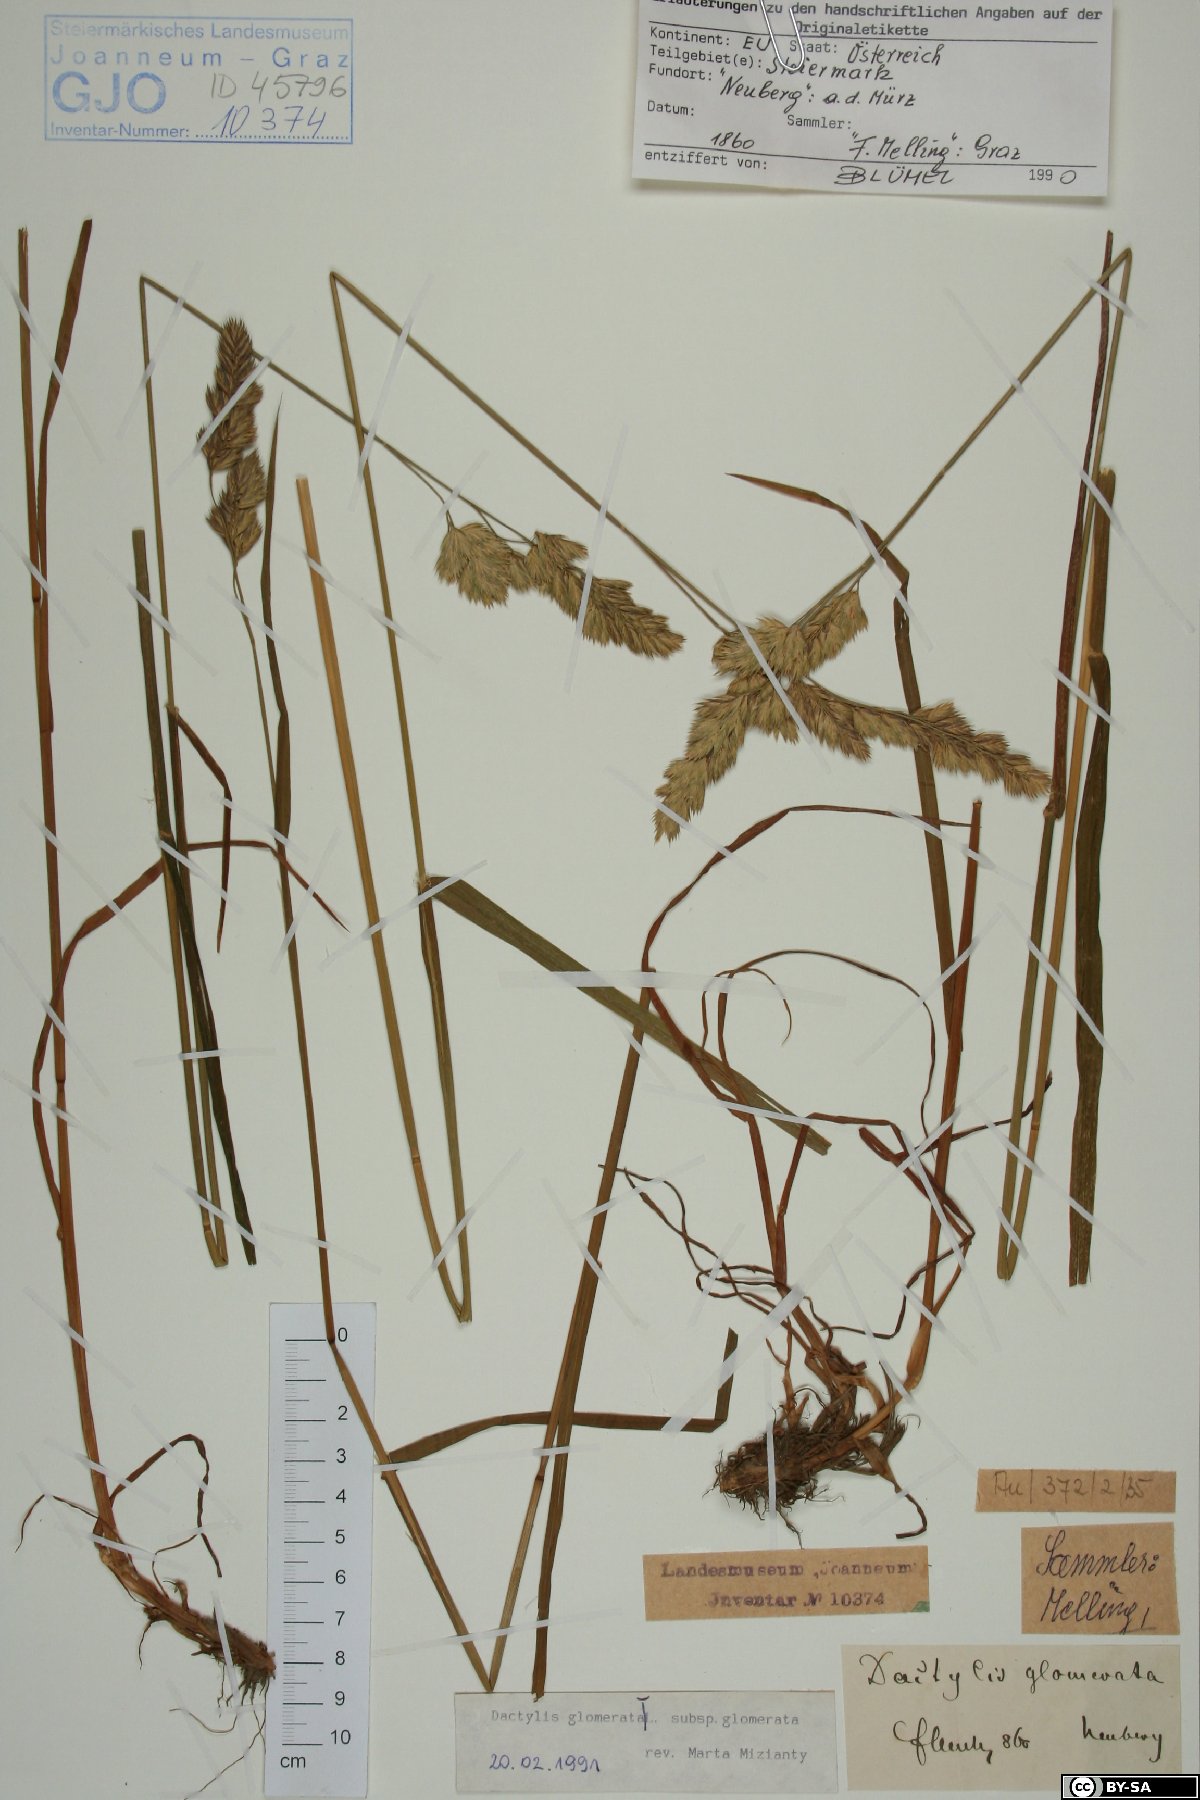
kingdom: Plantae
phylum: Tracheophyta
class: Liliopsida
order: Poales
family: Poaceae
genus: Dactylis
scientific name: Dactylis glomerata
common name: Orchardgrass
